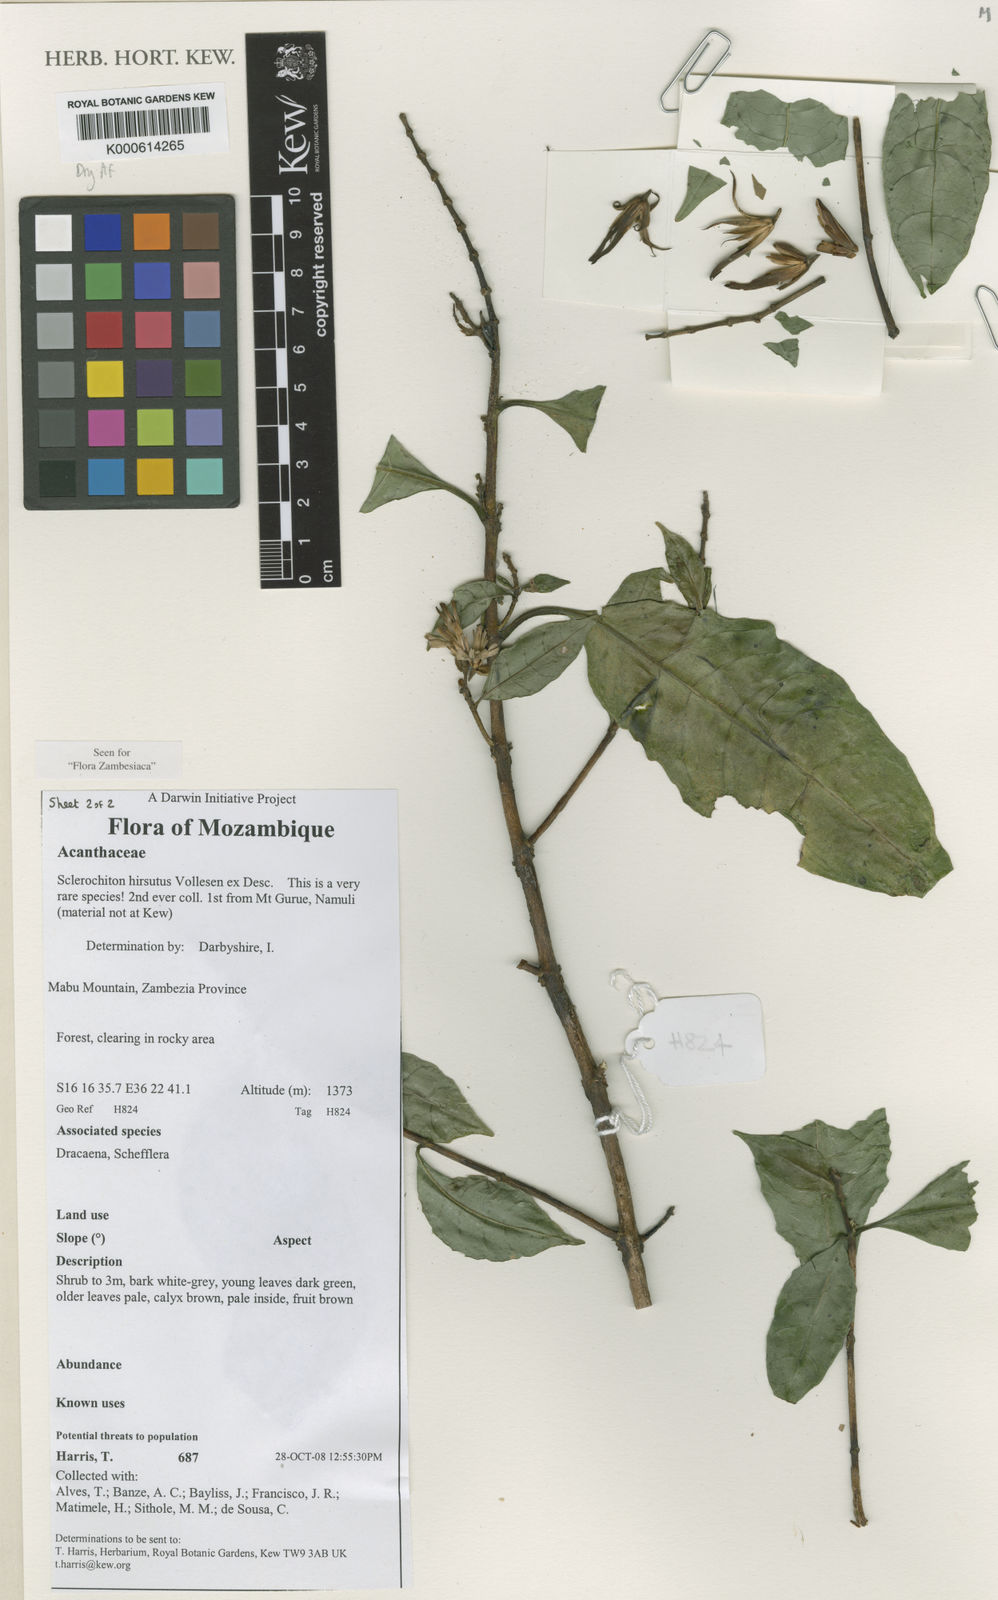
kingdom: Plantae
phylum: Tracheophyta
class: Magnoliopsida
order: Lamiales
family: Acanthaceae
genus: Sclerochiton
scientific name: Sclerochiton
